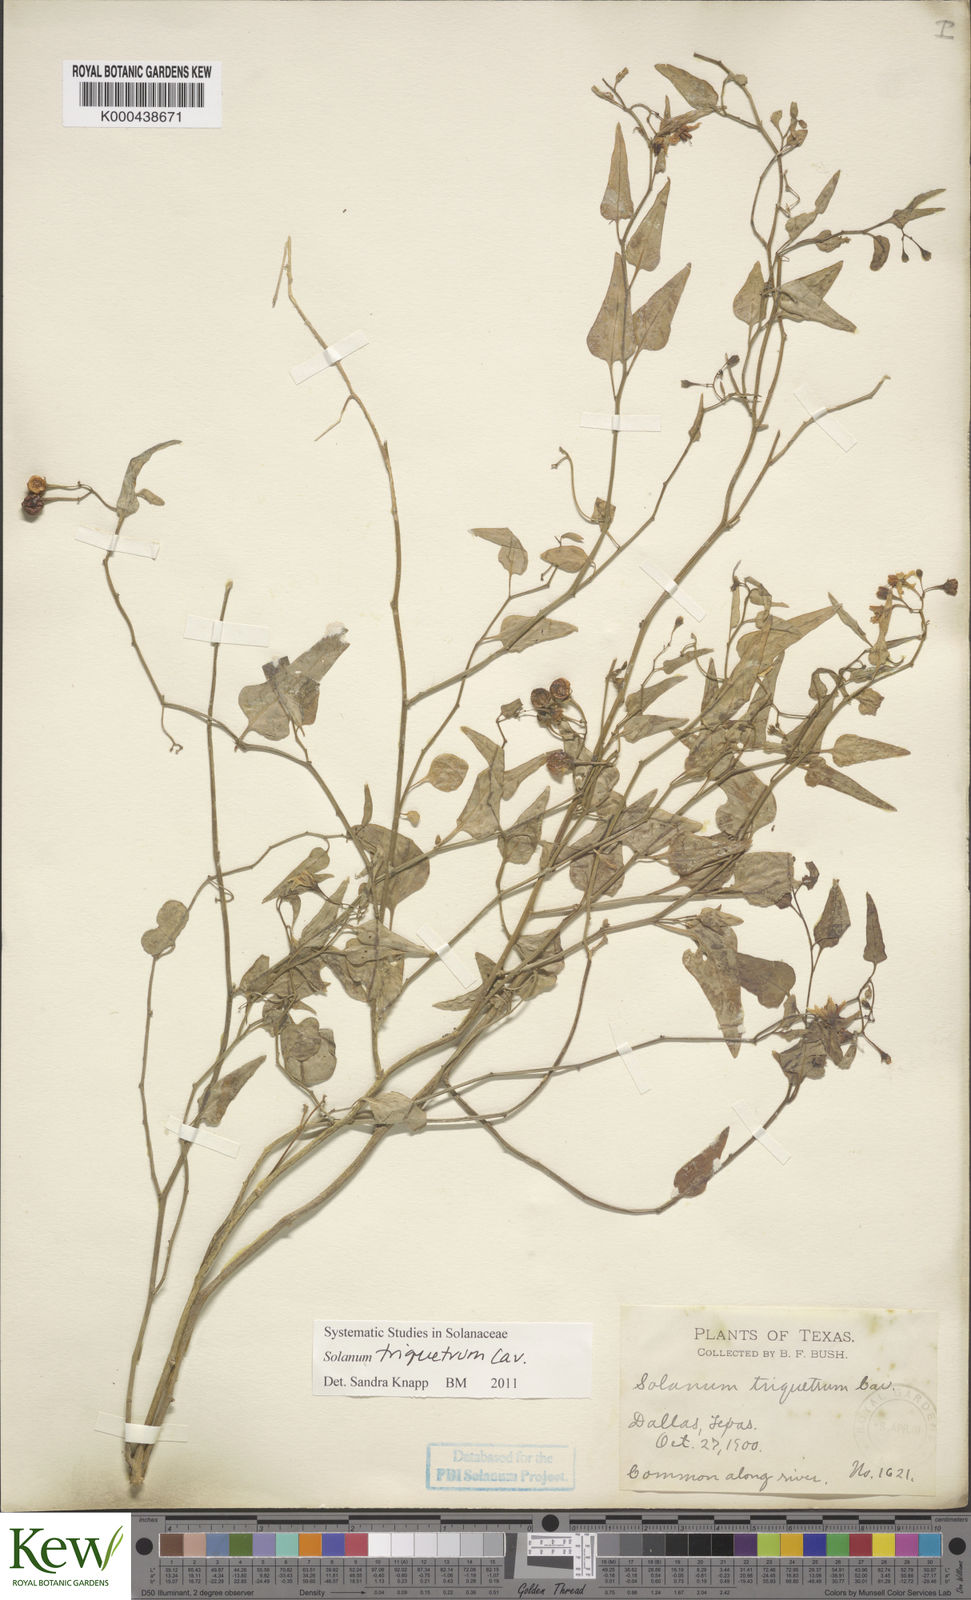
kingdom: Plantae
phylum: Tracheophyta
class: Magnoliopsida
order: Solanales
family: Solanaceae
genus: Solanum
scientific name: Solanum triquetrum
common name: Texas nightshade
